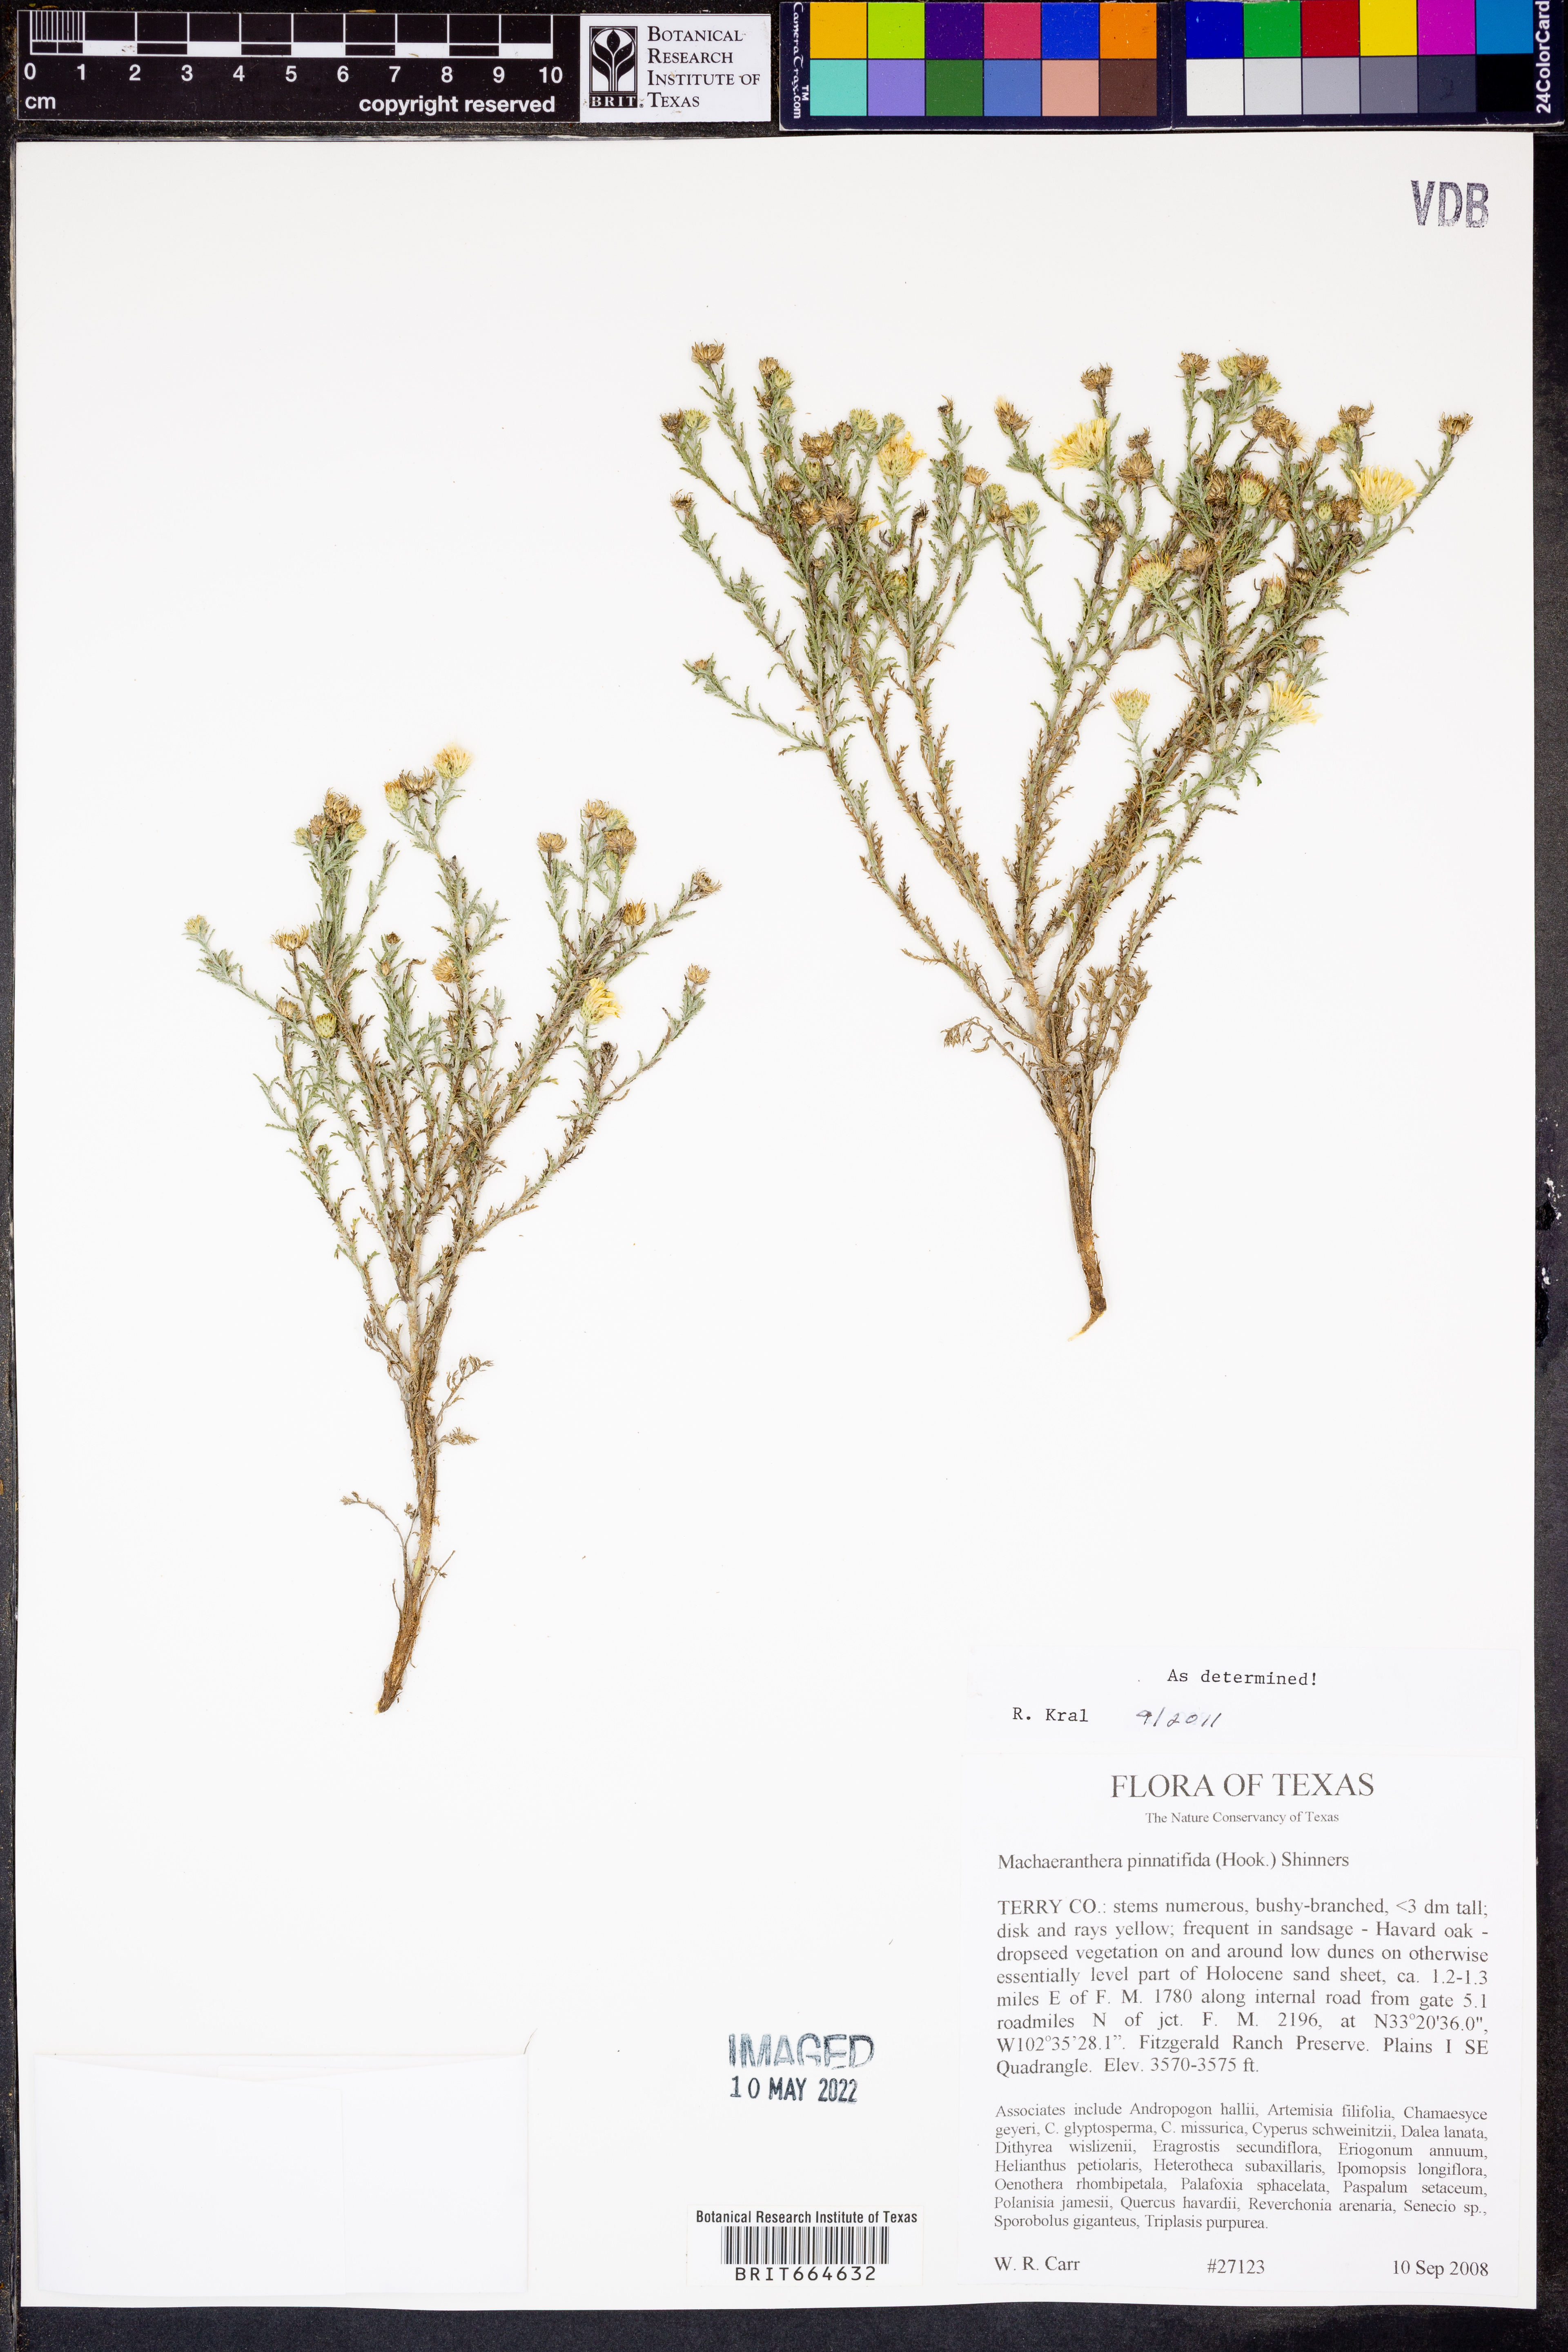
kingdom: Plantae
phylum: Tracheophyta
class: Magnoliopsida
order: Asterales
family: Asteraceae
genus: Xanthisma
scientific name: Xanthisma spinulosum
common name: Spiny goldenweed
